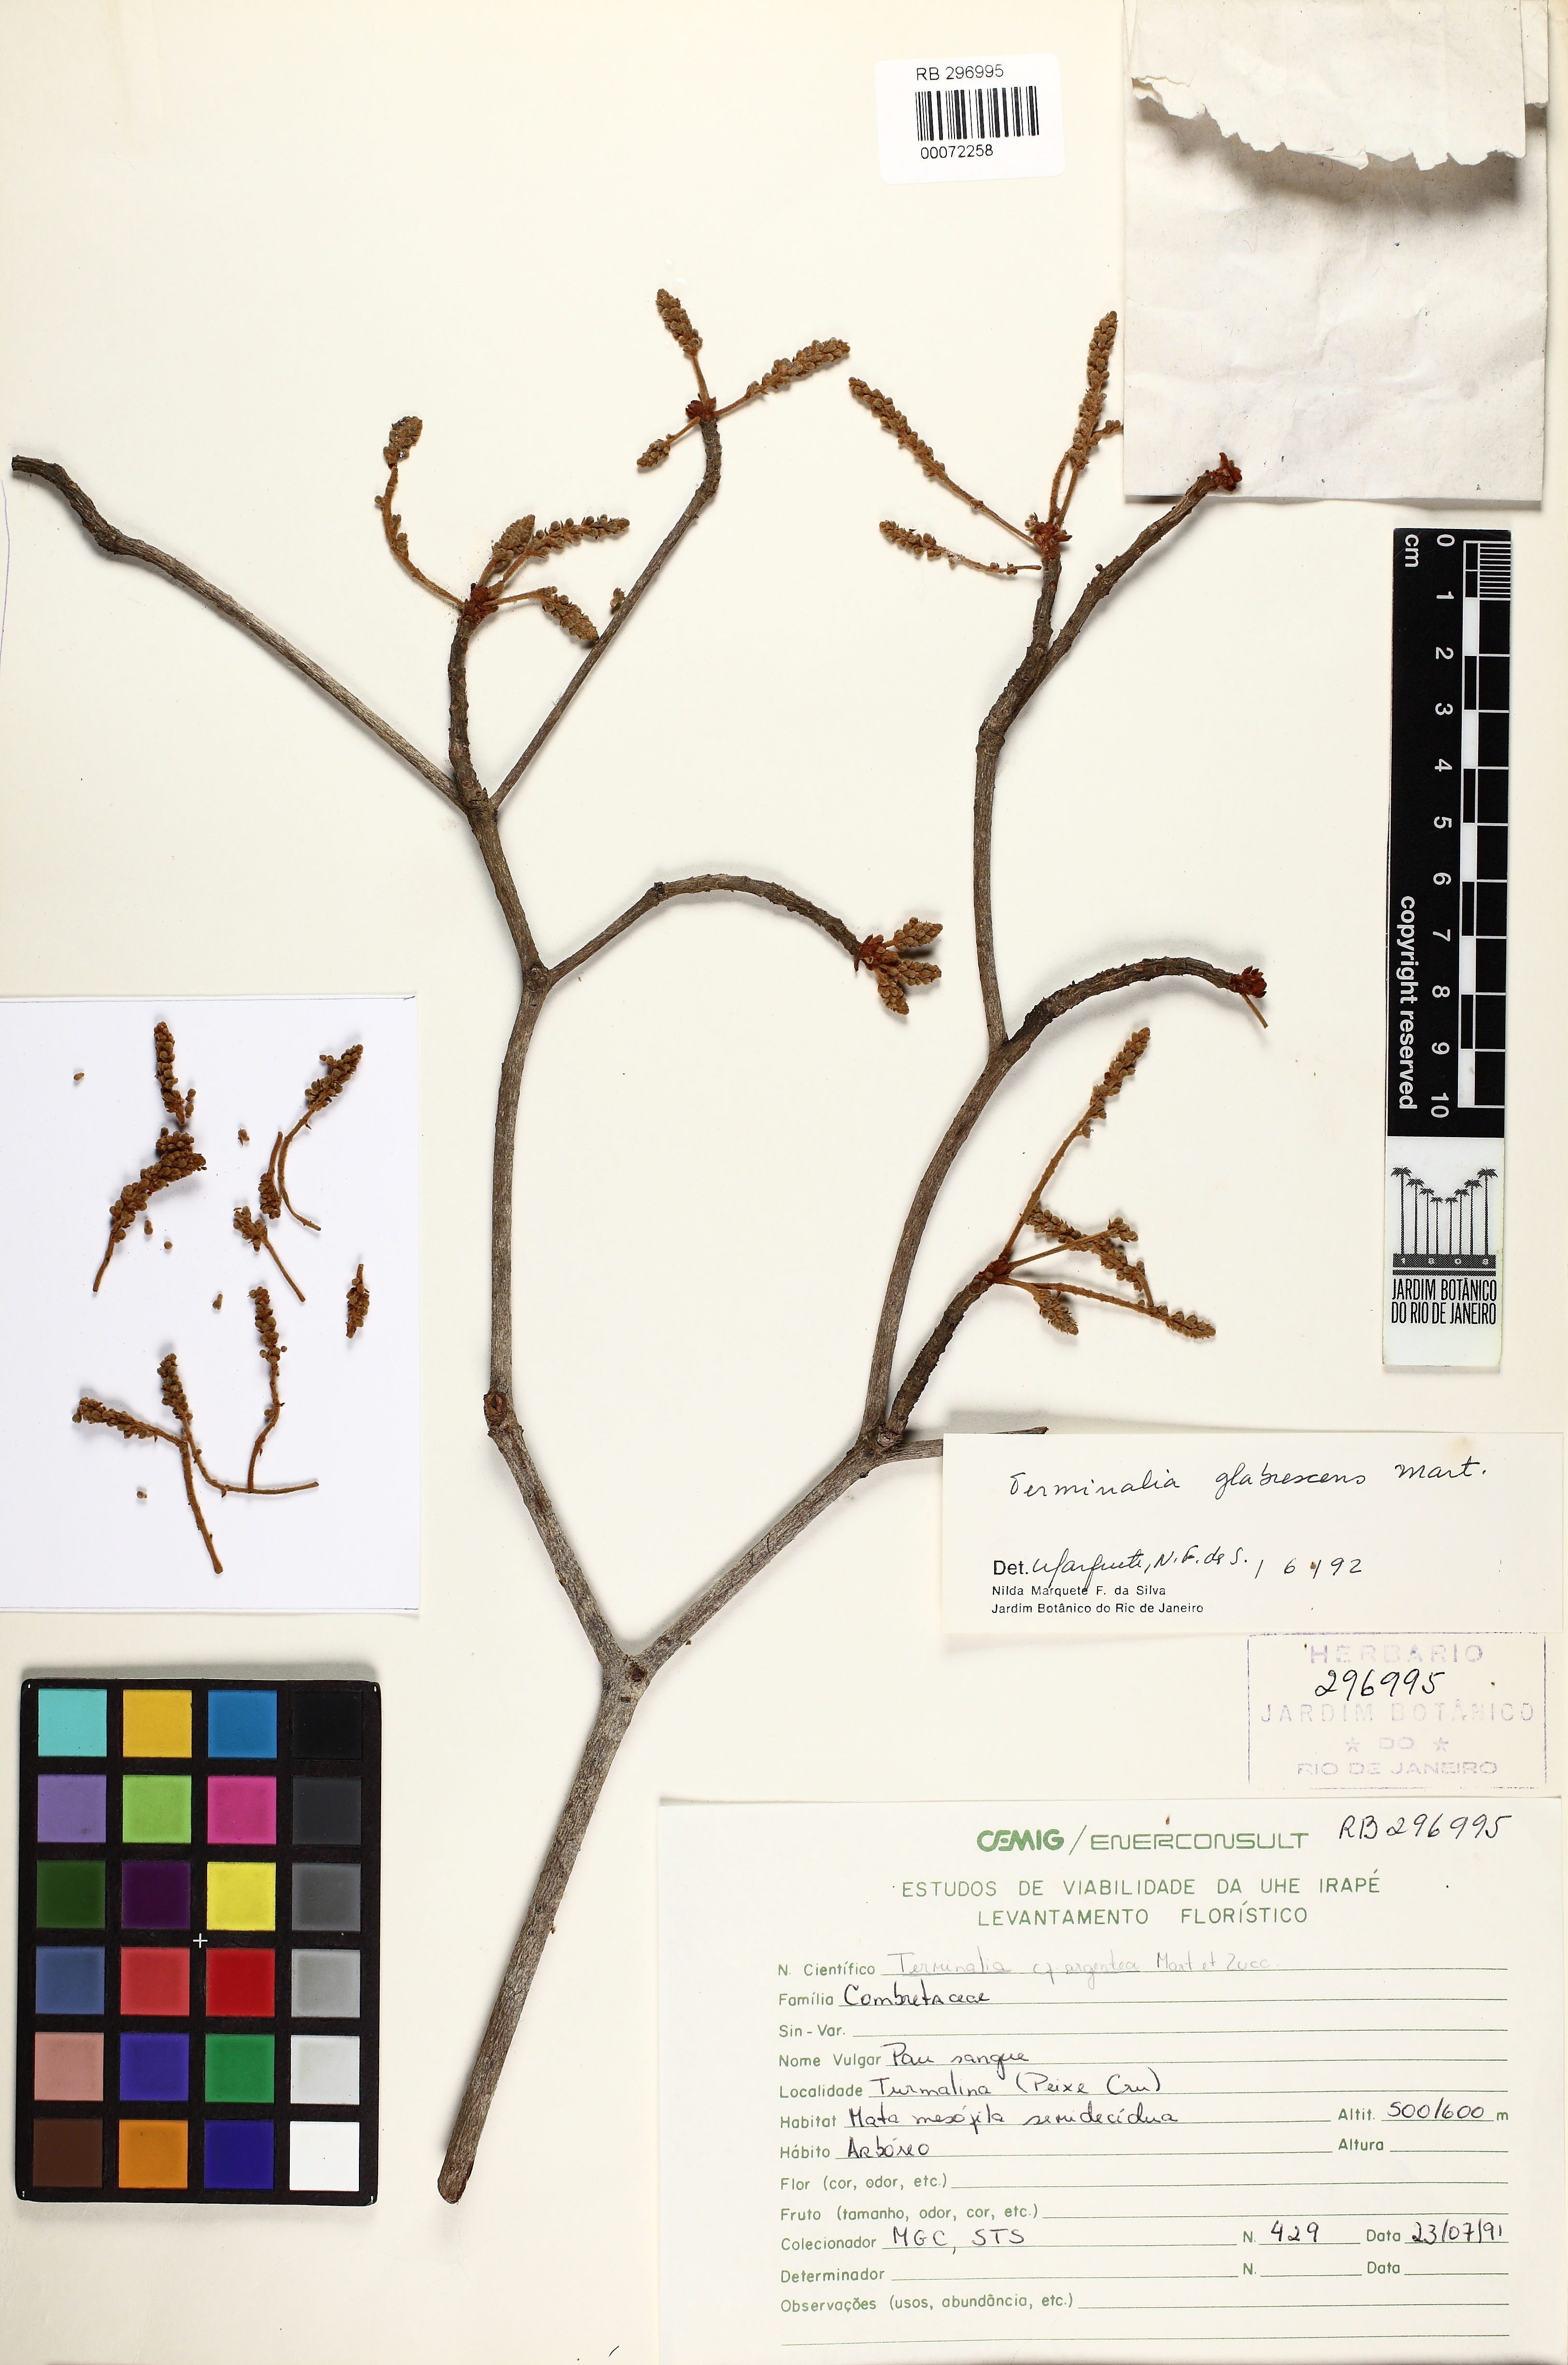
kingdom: Plantae
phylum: Tracheophyta
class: Magnoliopsida
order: Myrtales
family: Combretaceae
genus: Terminalia
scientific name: Terminalia glabrescens
